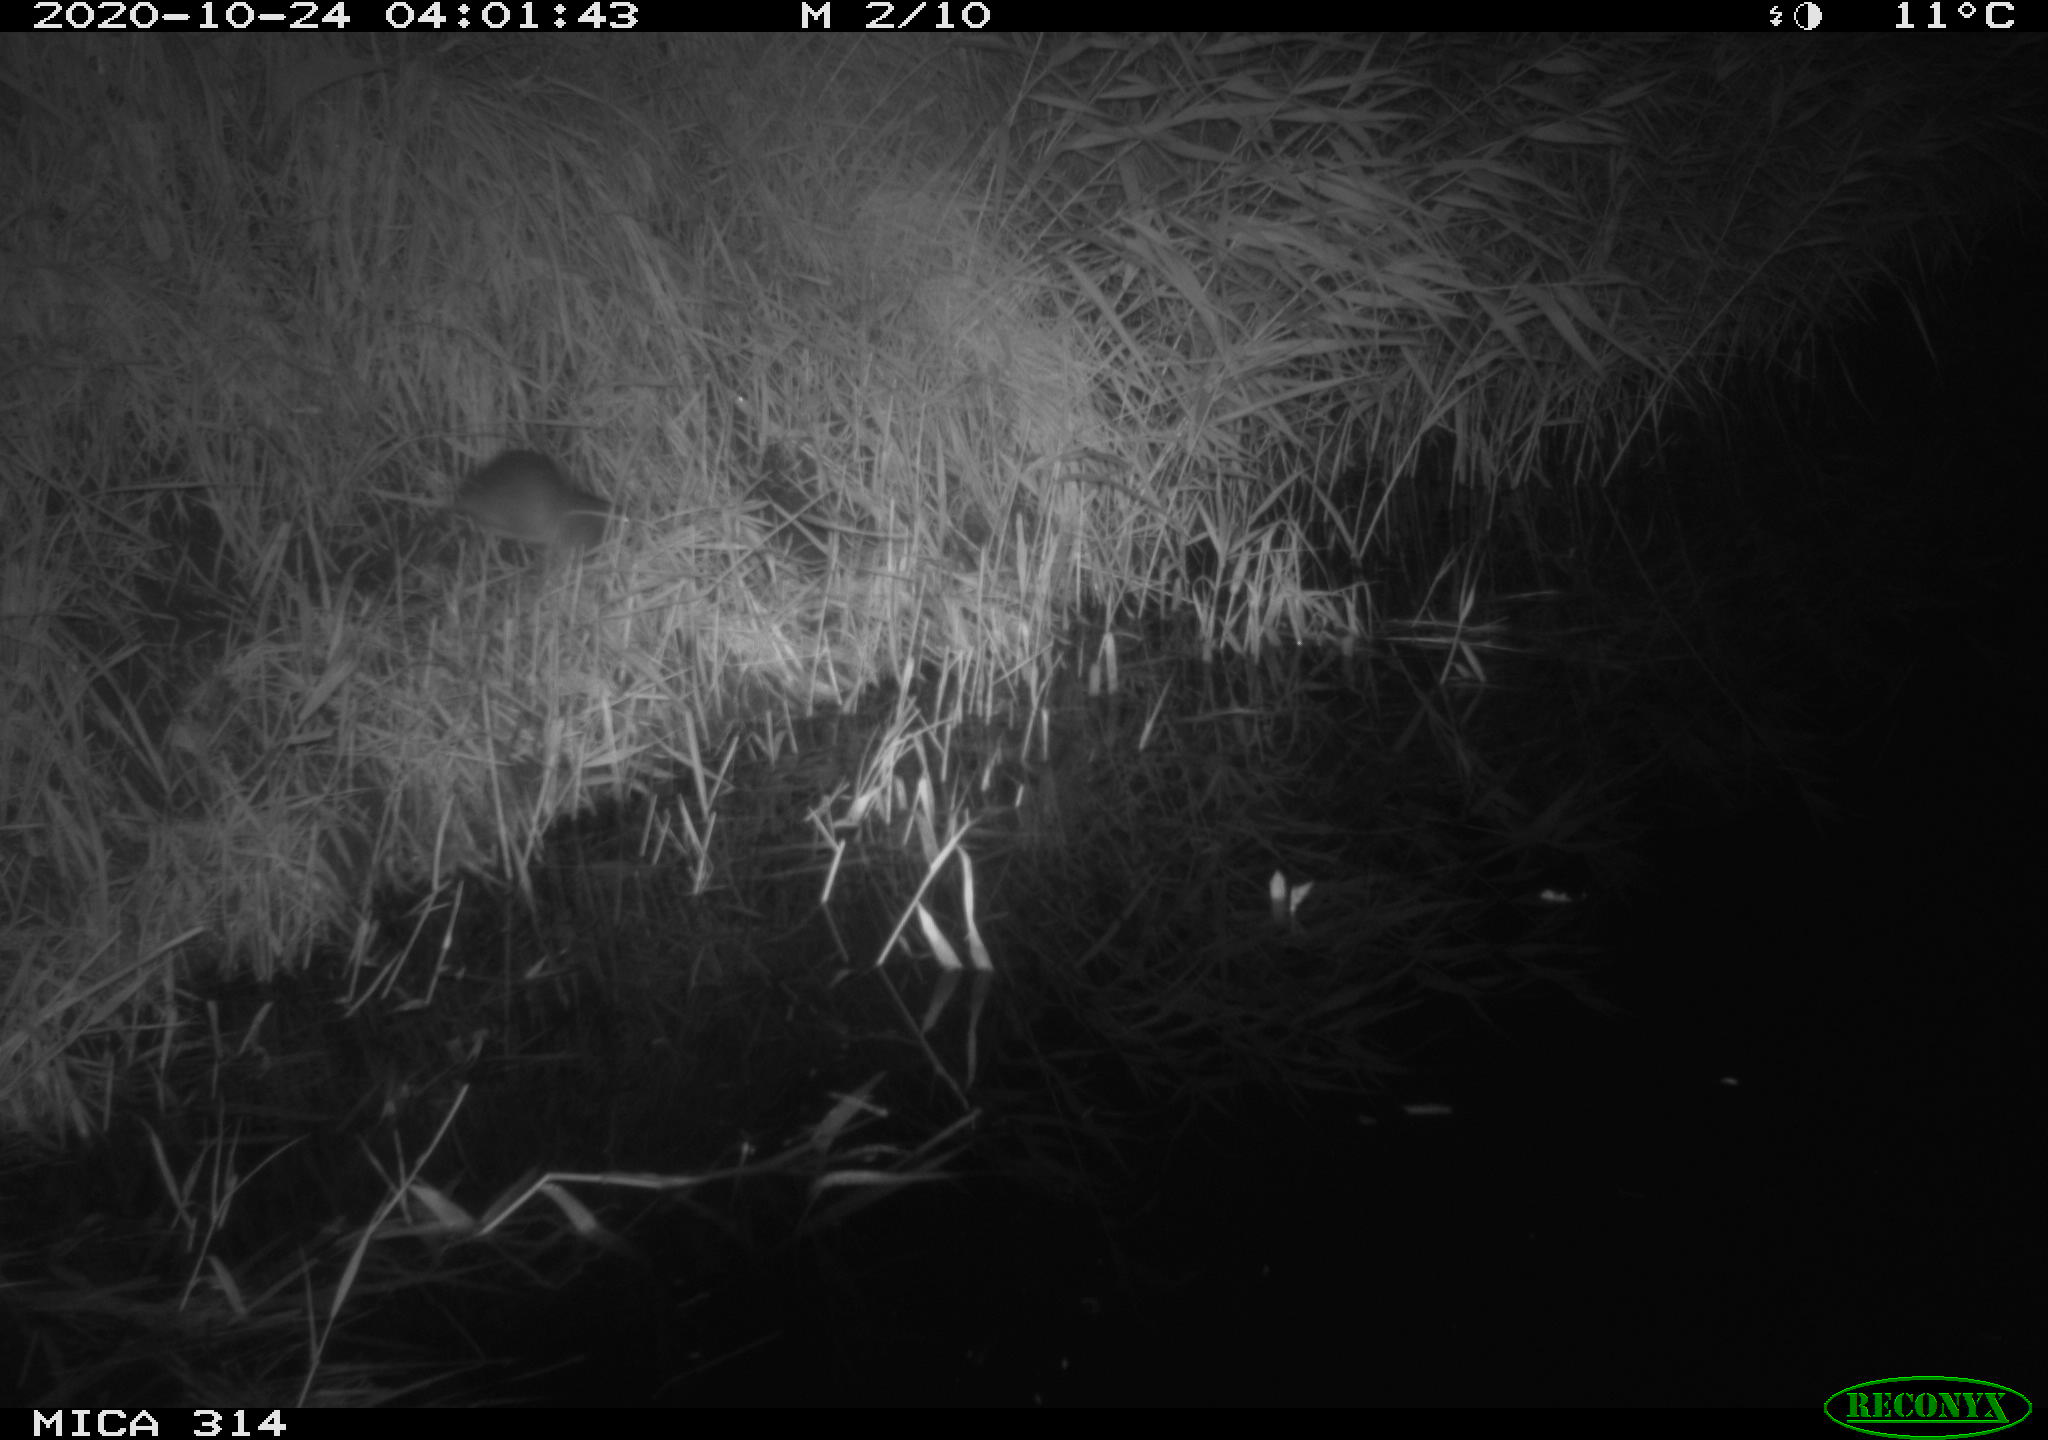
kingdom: Animalia
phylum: Chordata
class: Mammalia
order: Rodentia
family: Muridae
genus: Rattus
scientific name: Rattus norvegicus
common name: Brown rat
